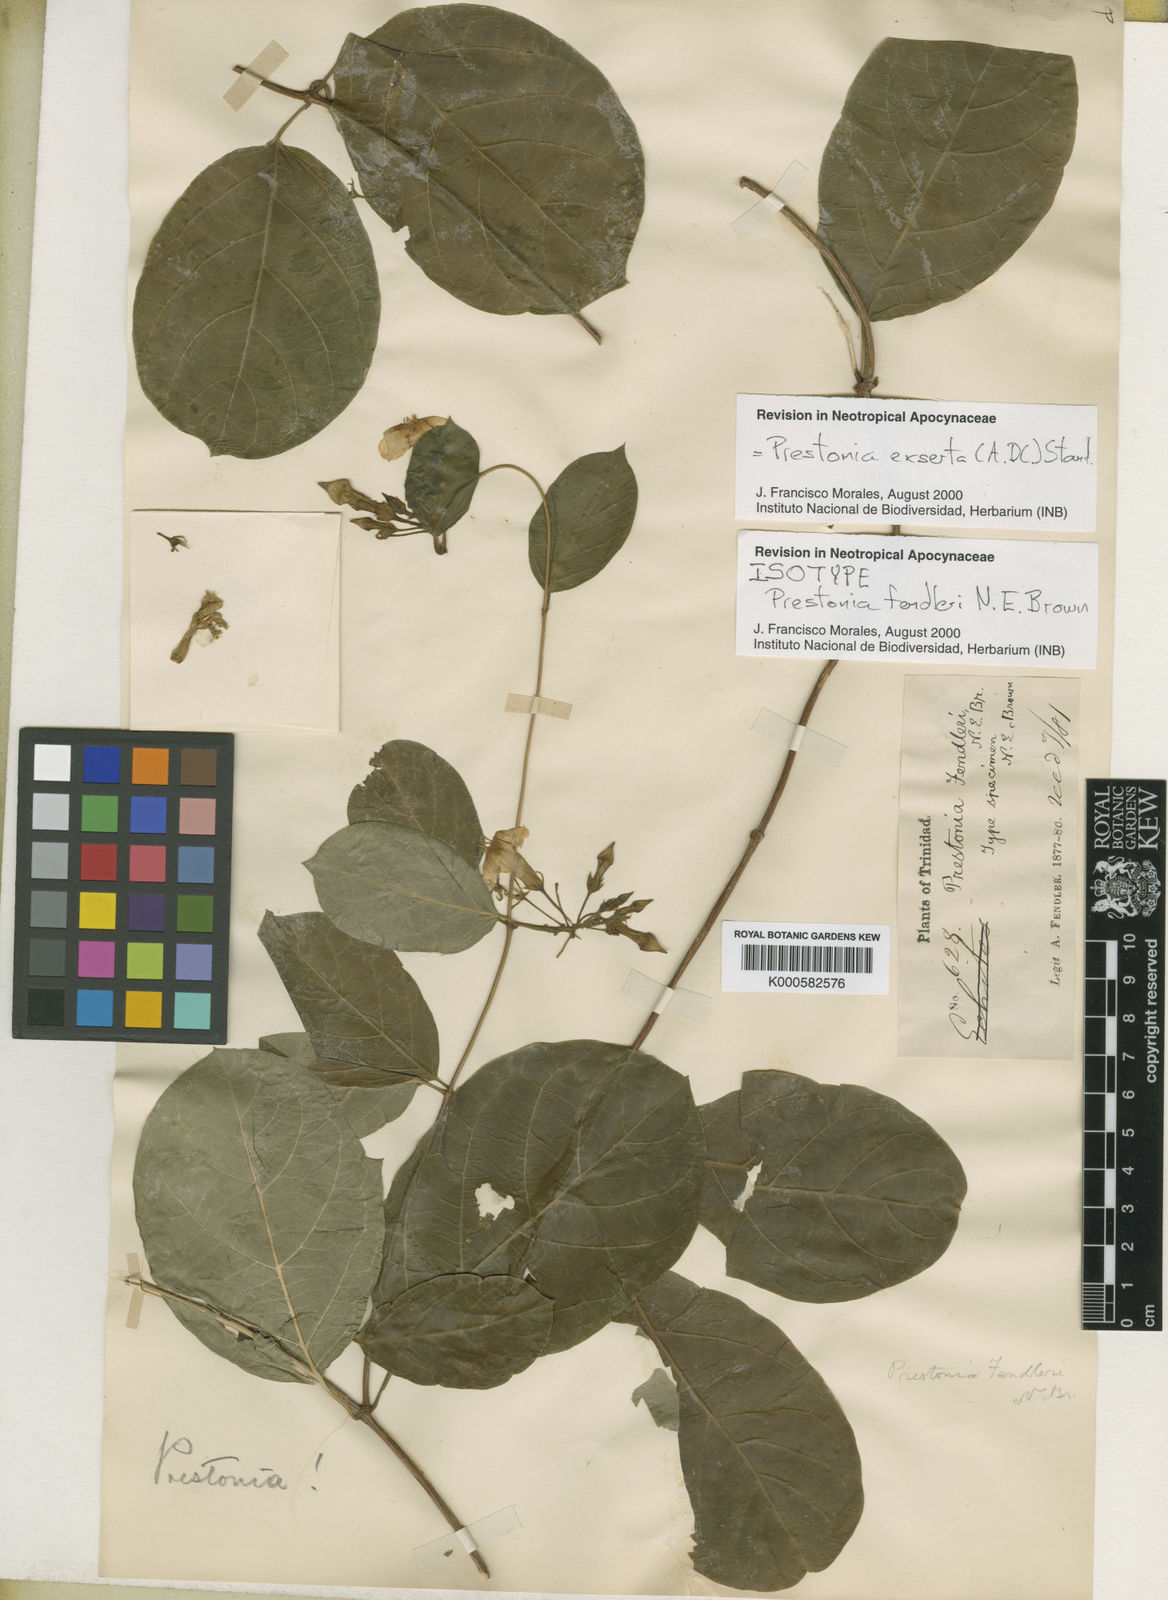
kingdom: Plantae
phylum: Tracheophyta
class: Magnoliopsida
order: Gentianales
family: Apocynaceae
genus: Prestonia
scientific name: Prestonia exserta
